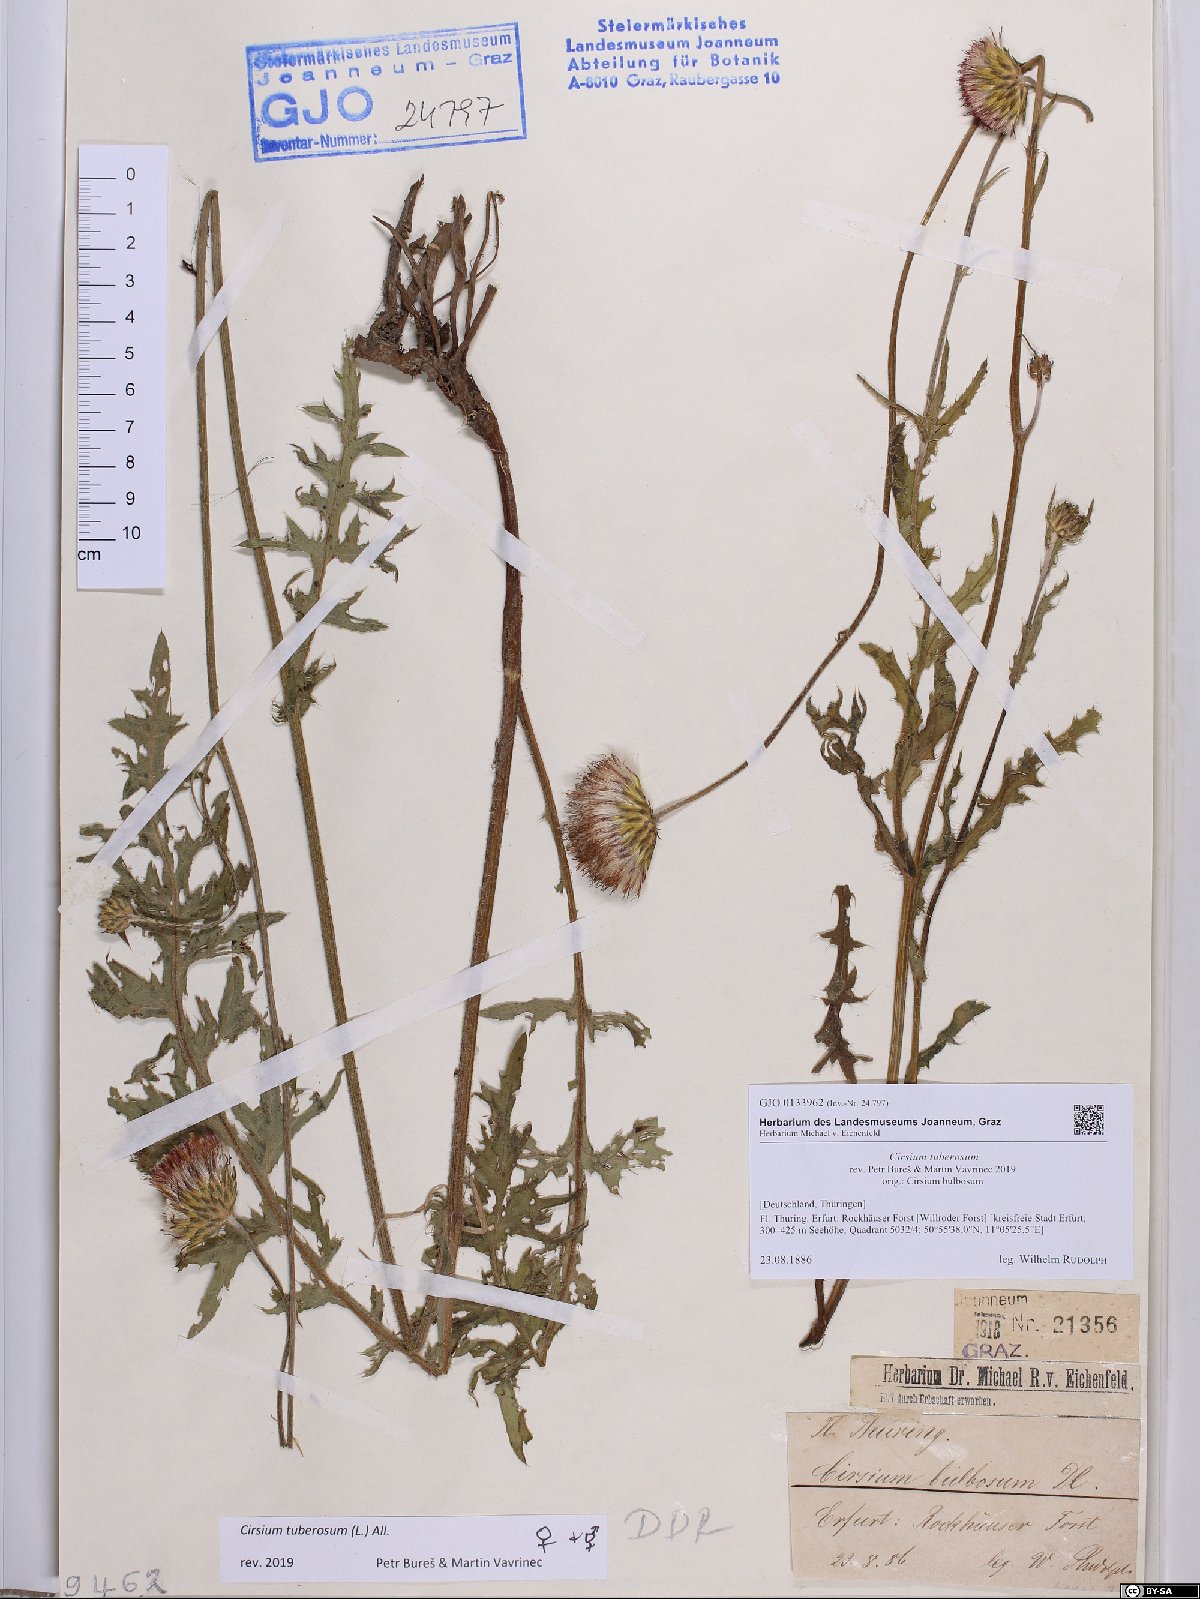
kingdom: Plantae
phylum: Tracheophyta
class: Magnoliopsida
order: Asterales
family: Asteraceae
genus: Cirsium
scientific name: Cirsium tuberosum
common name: Tuberous thistle
